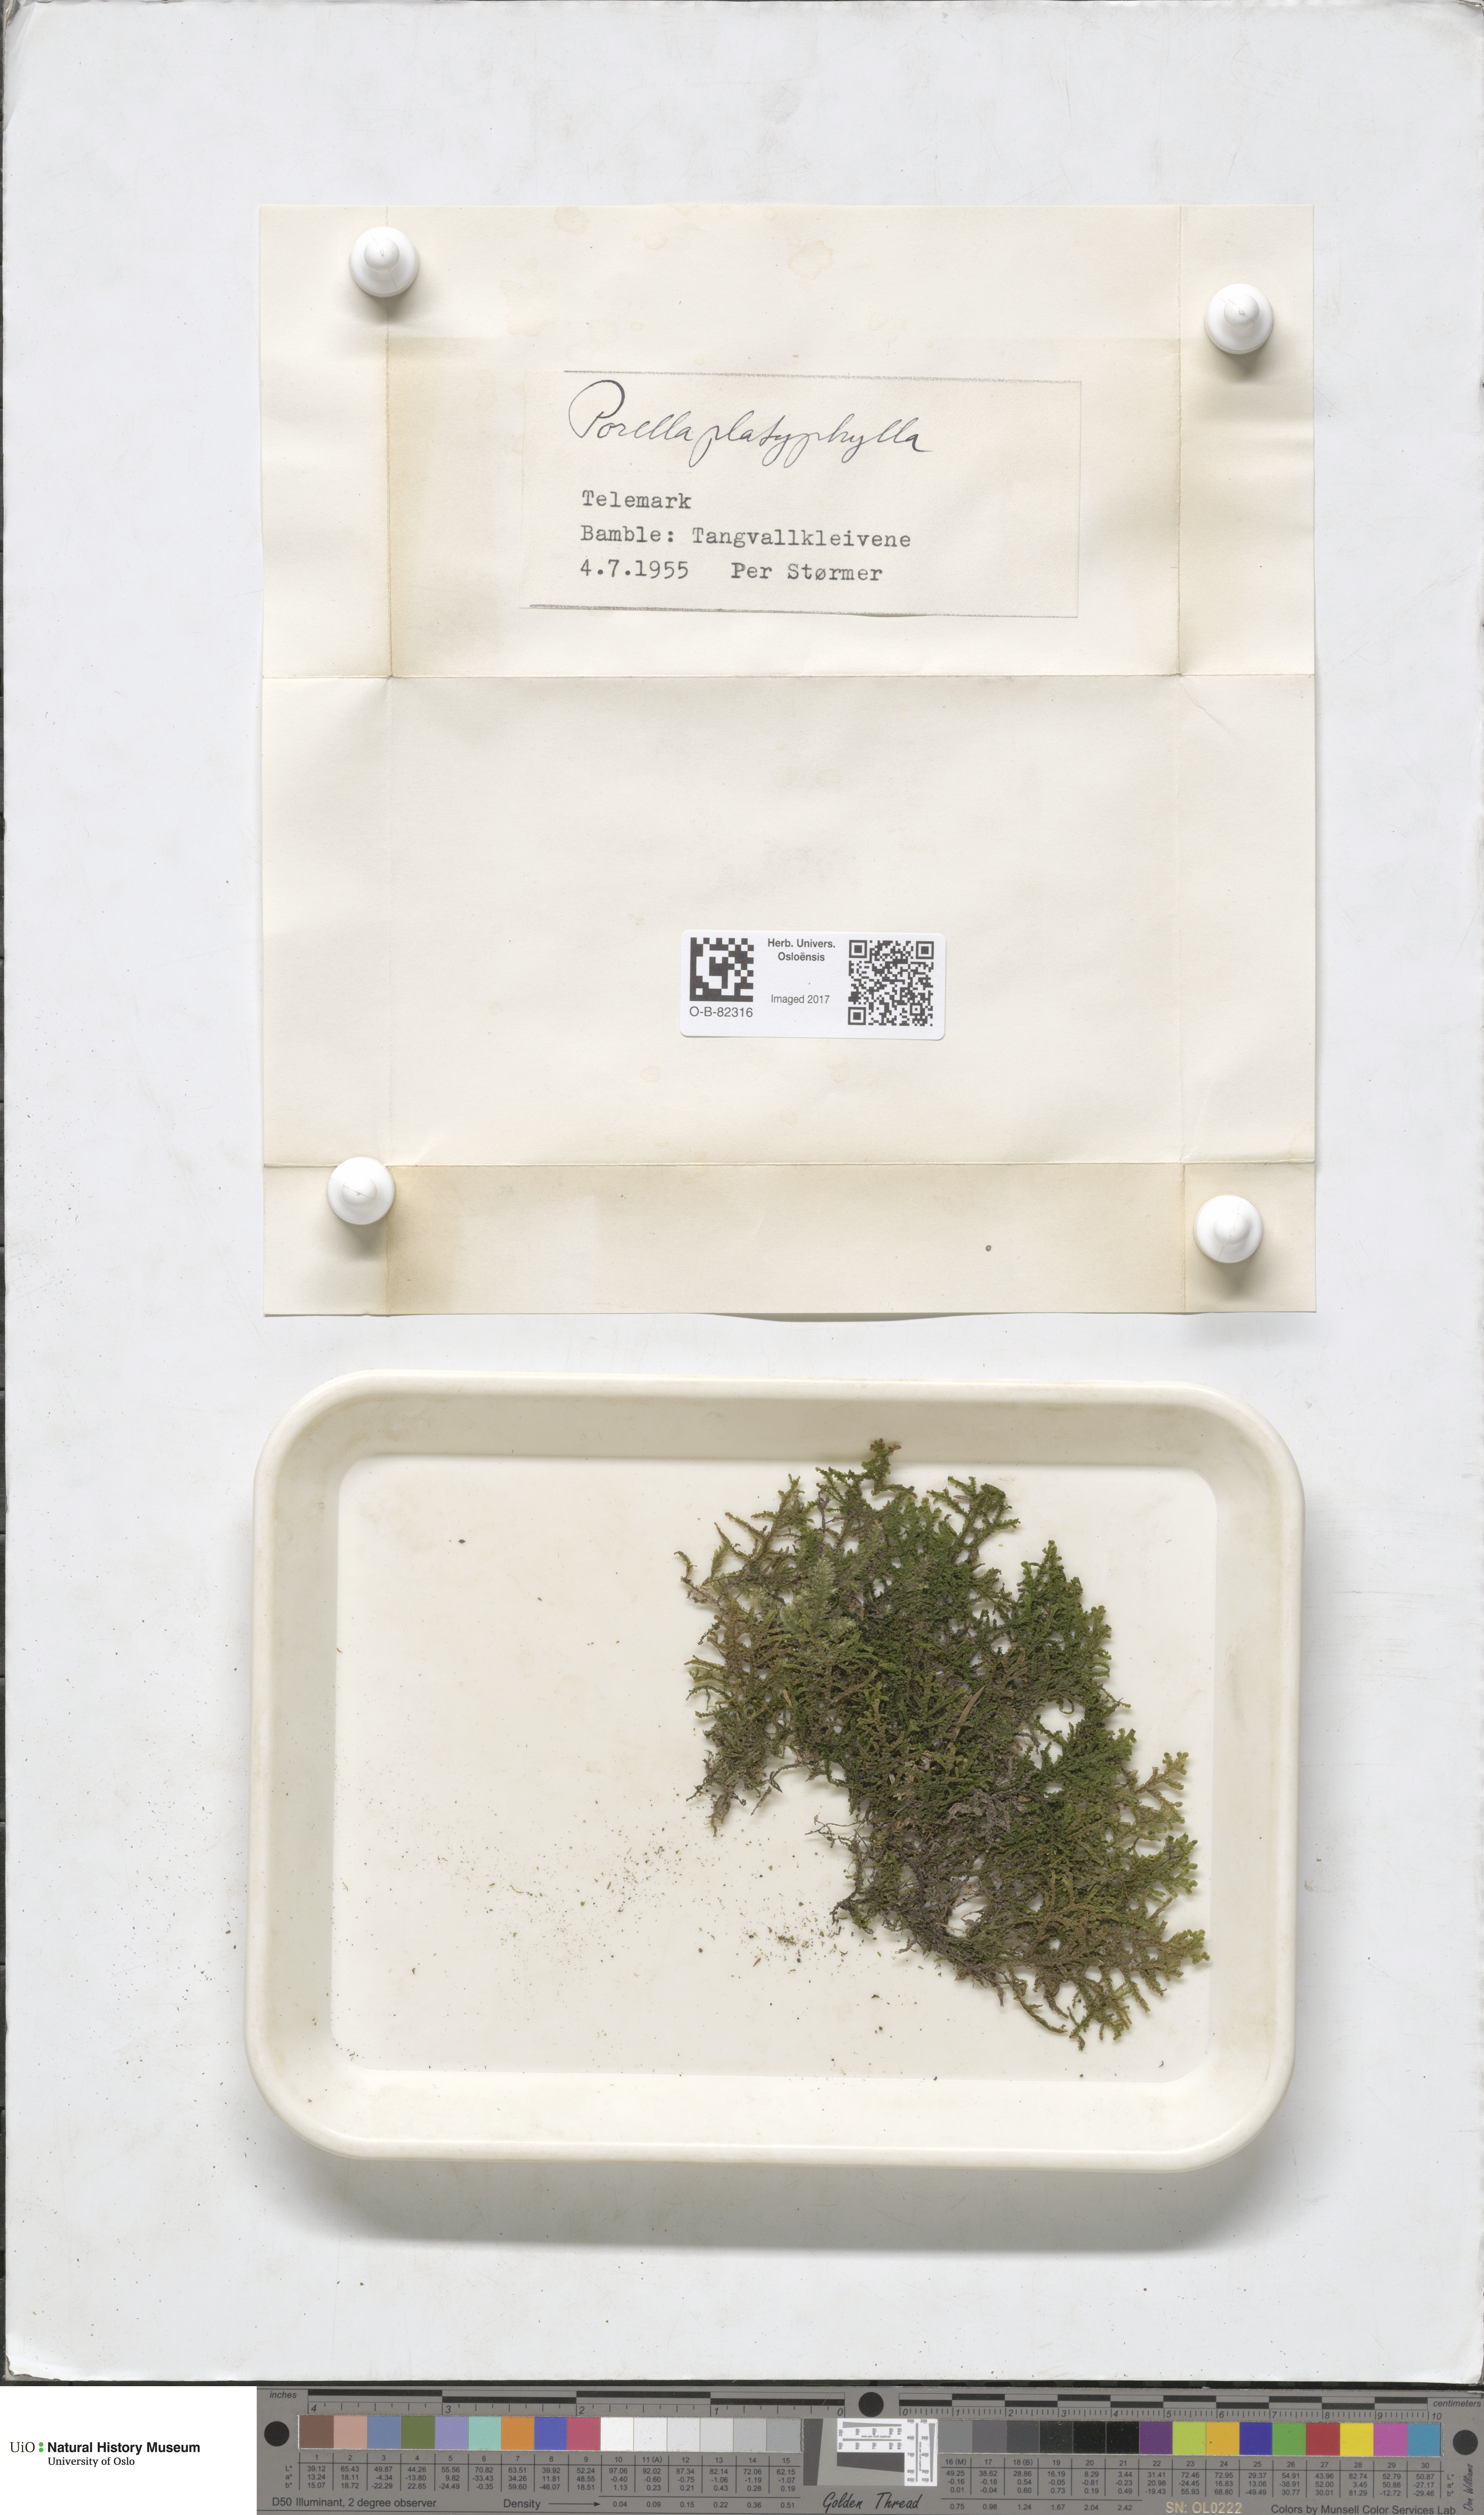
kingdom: Plantae
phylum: Marchantiophyta
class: Jungermanniopsida
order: Porellales
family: Porellaceae
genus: Porella
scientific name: Porella platyphylla
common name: Wall scalewort
